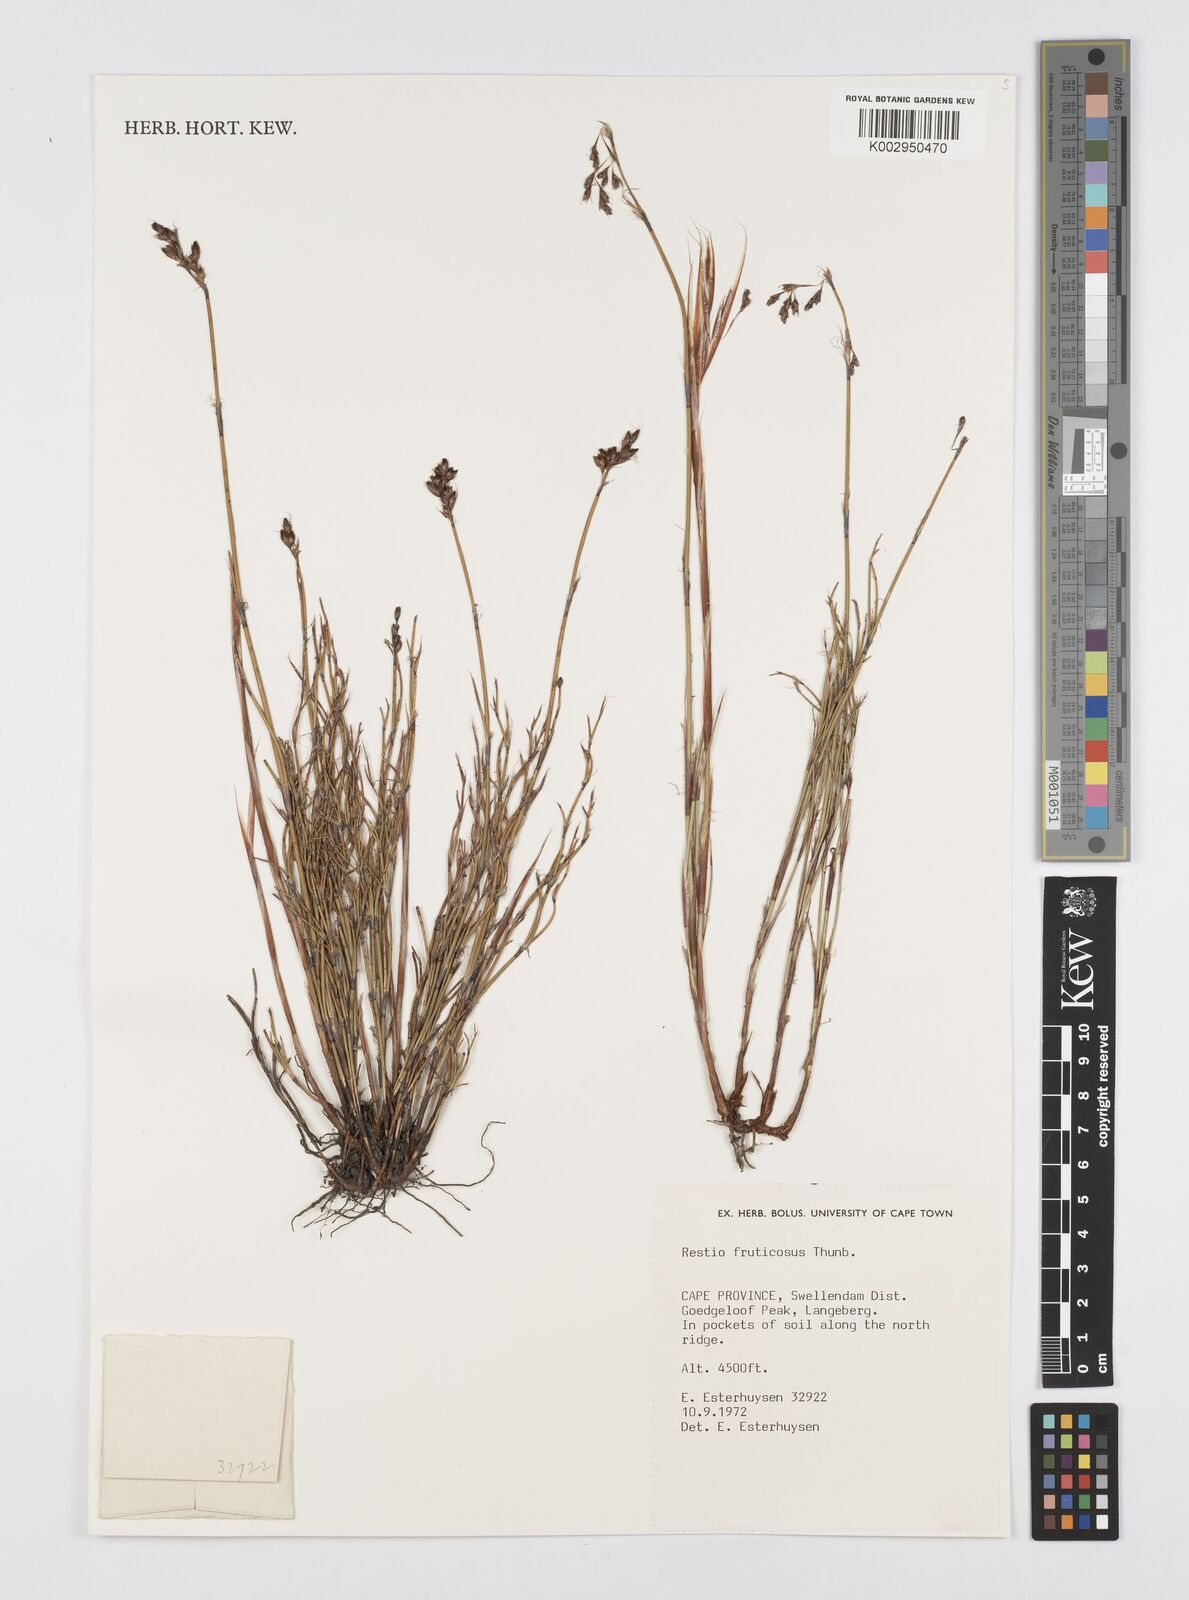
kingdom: Plantae
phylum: Tracheophyta
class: Liliopsida
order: Poales
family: Restionaceae
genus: Rhodocoma
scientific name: Rhodocoma fruticosa
